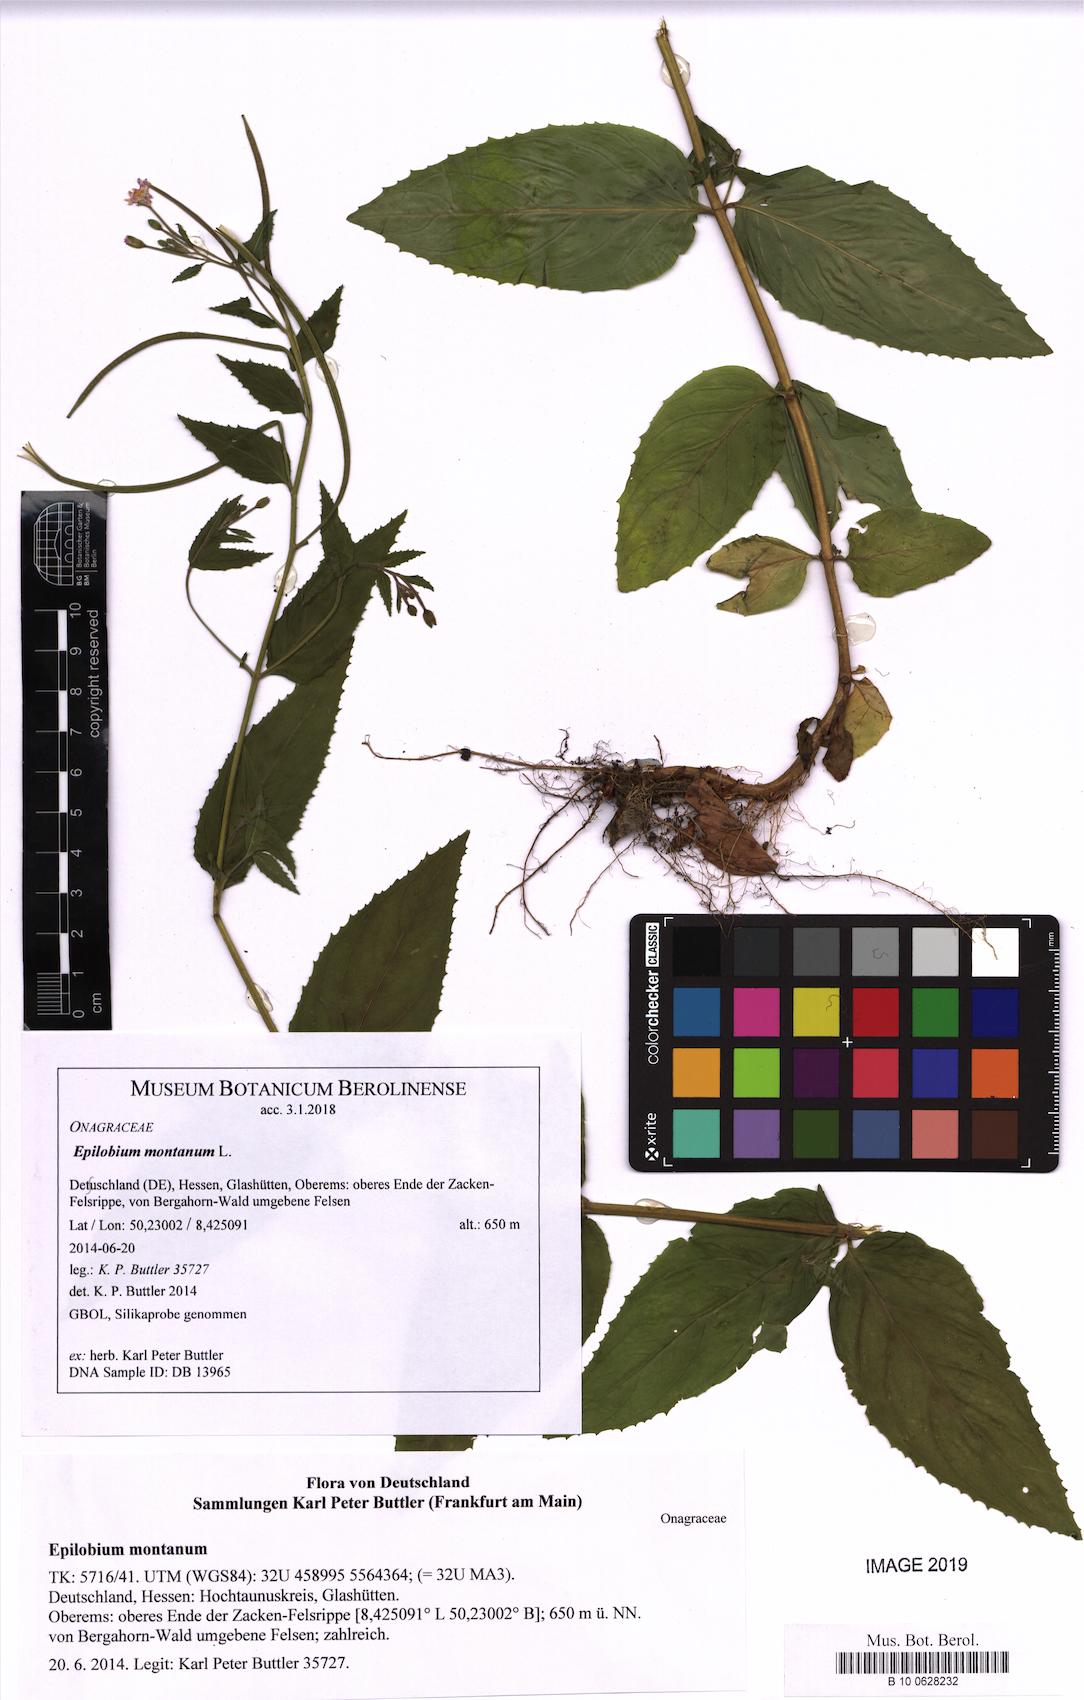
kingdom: Plantae
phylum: Tracheophyta
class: Magnoliopsida
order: Myrtales
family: Onagraceae
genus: Epilobium
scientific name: Epilobium montanum
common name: Broad-leaved willowherb
